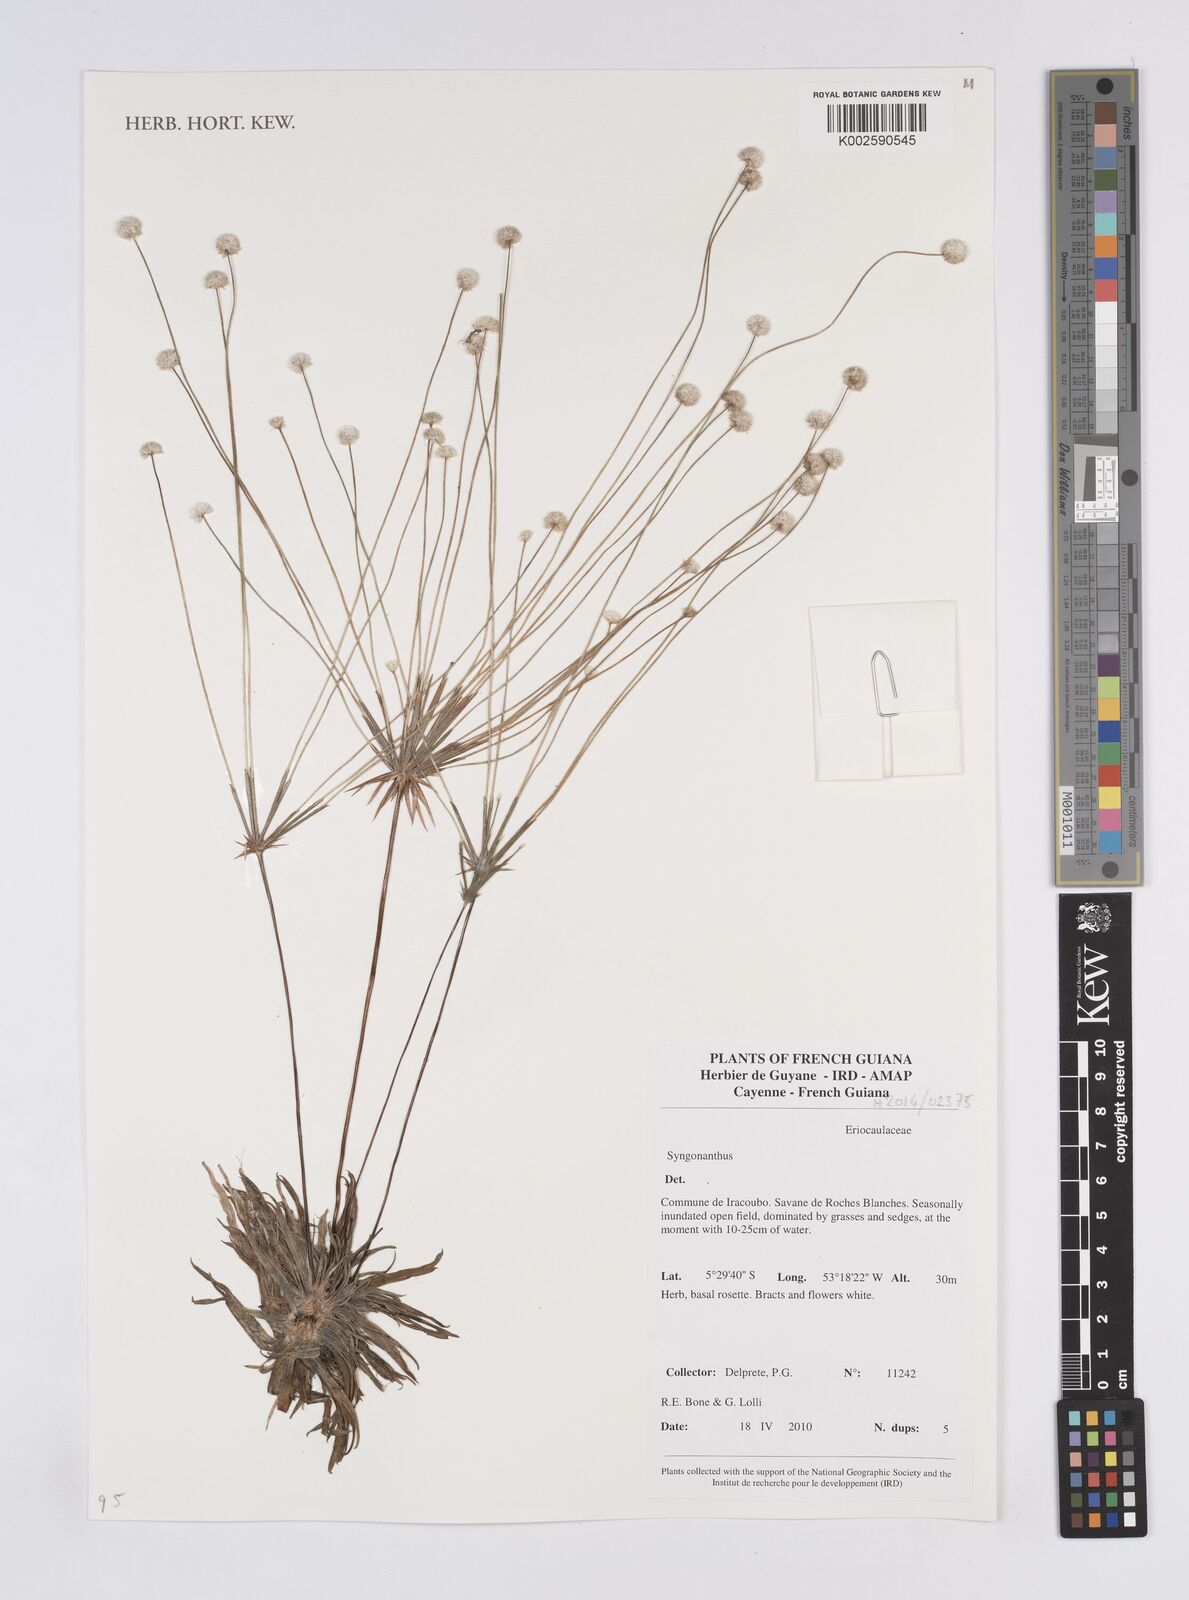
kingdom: Plantae
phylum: Tracheophyta
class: Liliopsida
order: Poales
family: Eriocaulaceae
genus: Syngonanthus
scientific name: Syngonanthus
